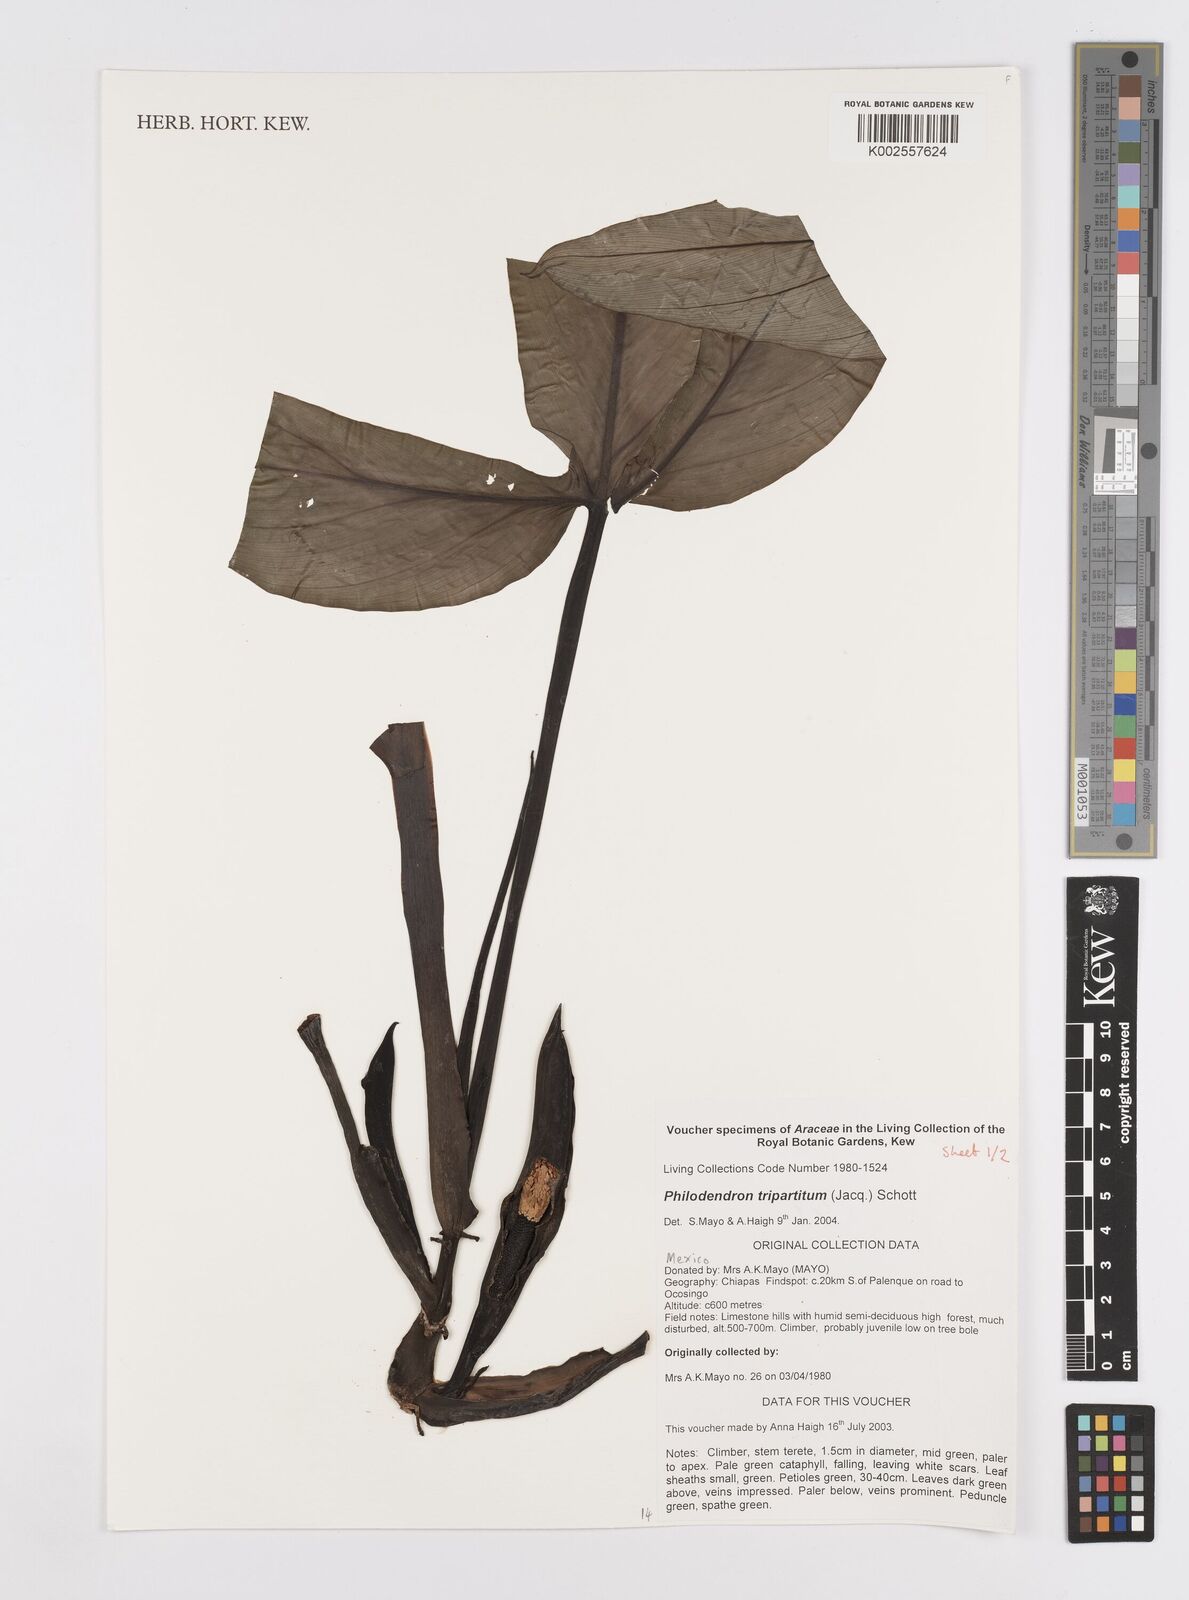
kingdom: Plantae
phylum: Tracheophyta
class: Liliopsida
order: Alismatales
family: Araceae
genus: Philodendron
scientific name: Philodendron tripartitum
